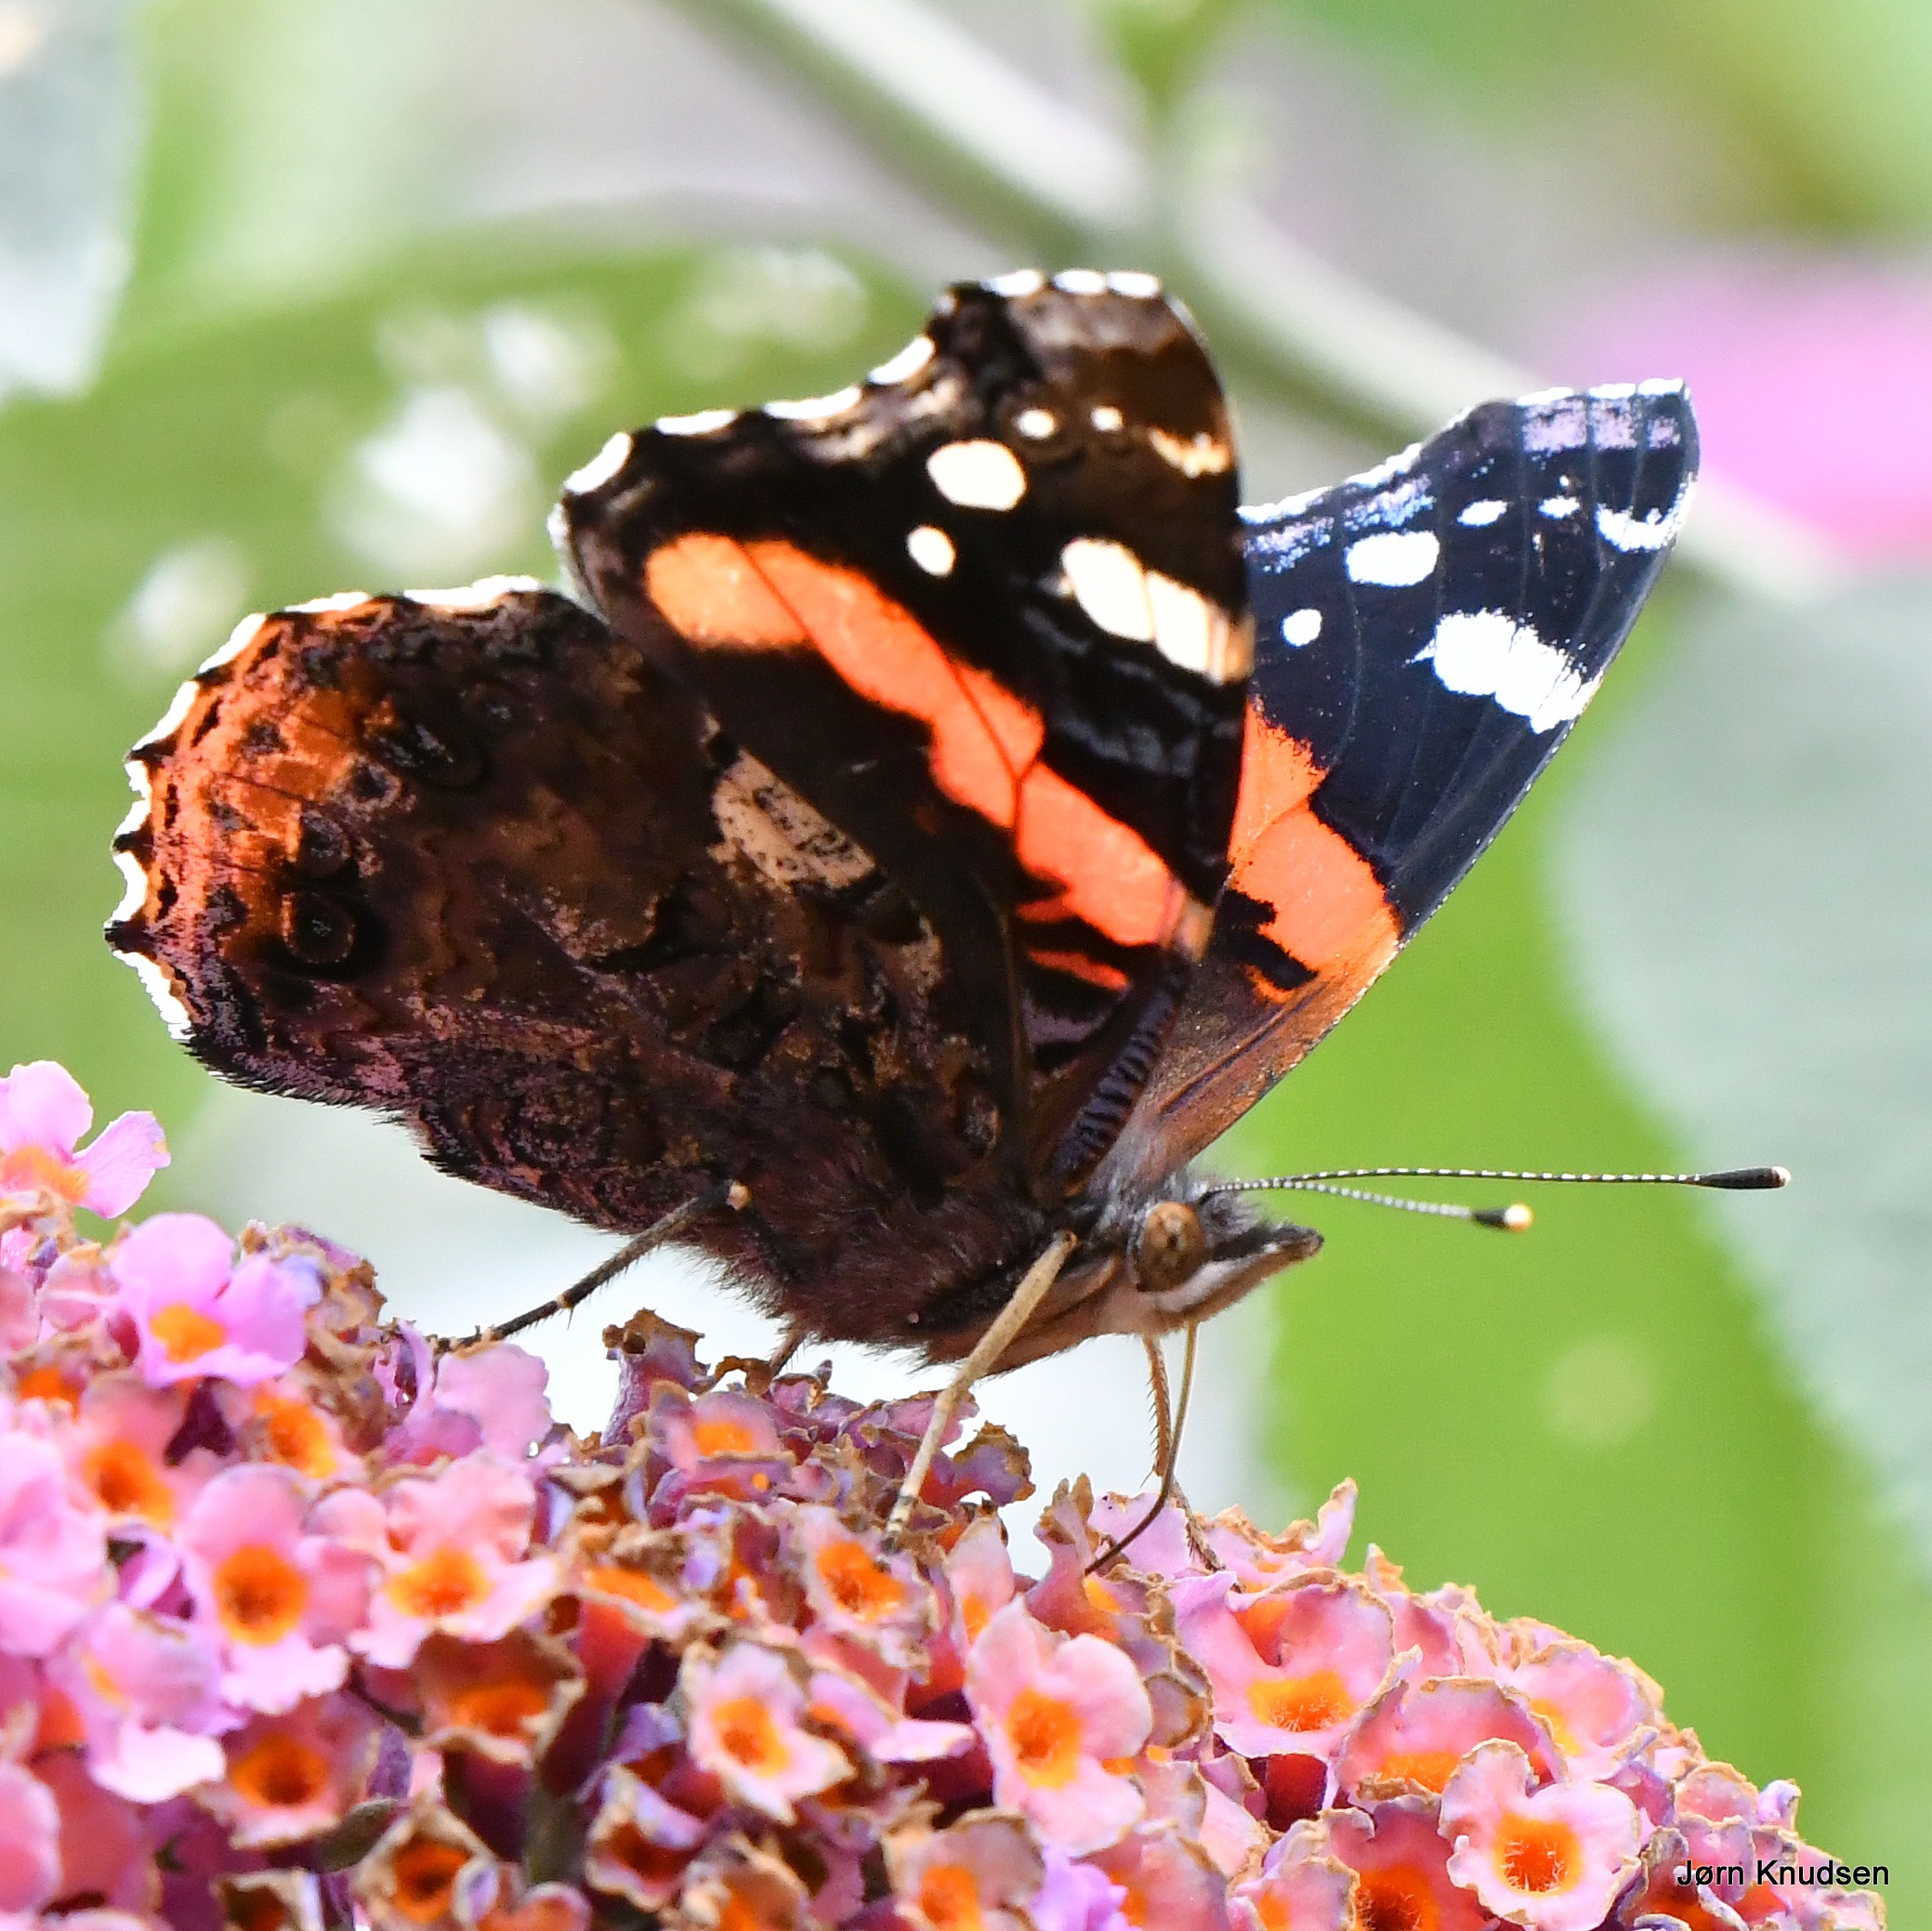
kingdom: Animalia
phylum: Arthropoda
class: Insecta
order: Lepidoptera
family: Nymphalidae
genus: Vanessa
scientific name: Vanessa atalanta
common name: Admiral
